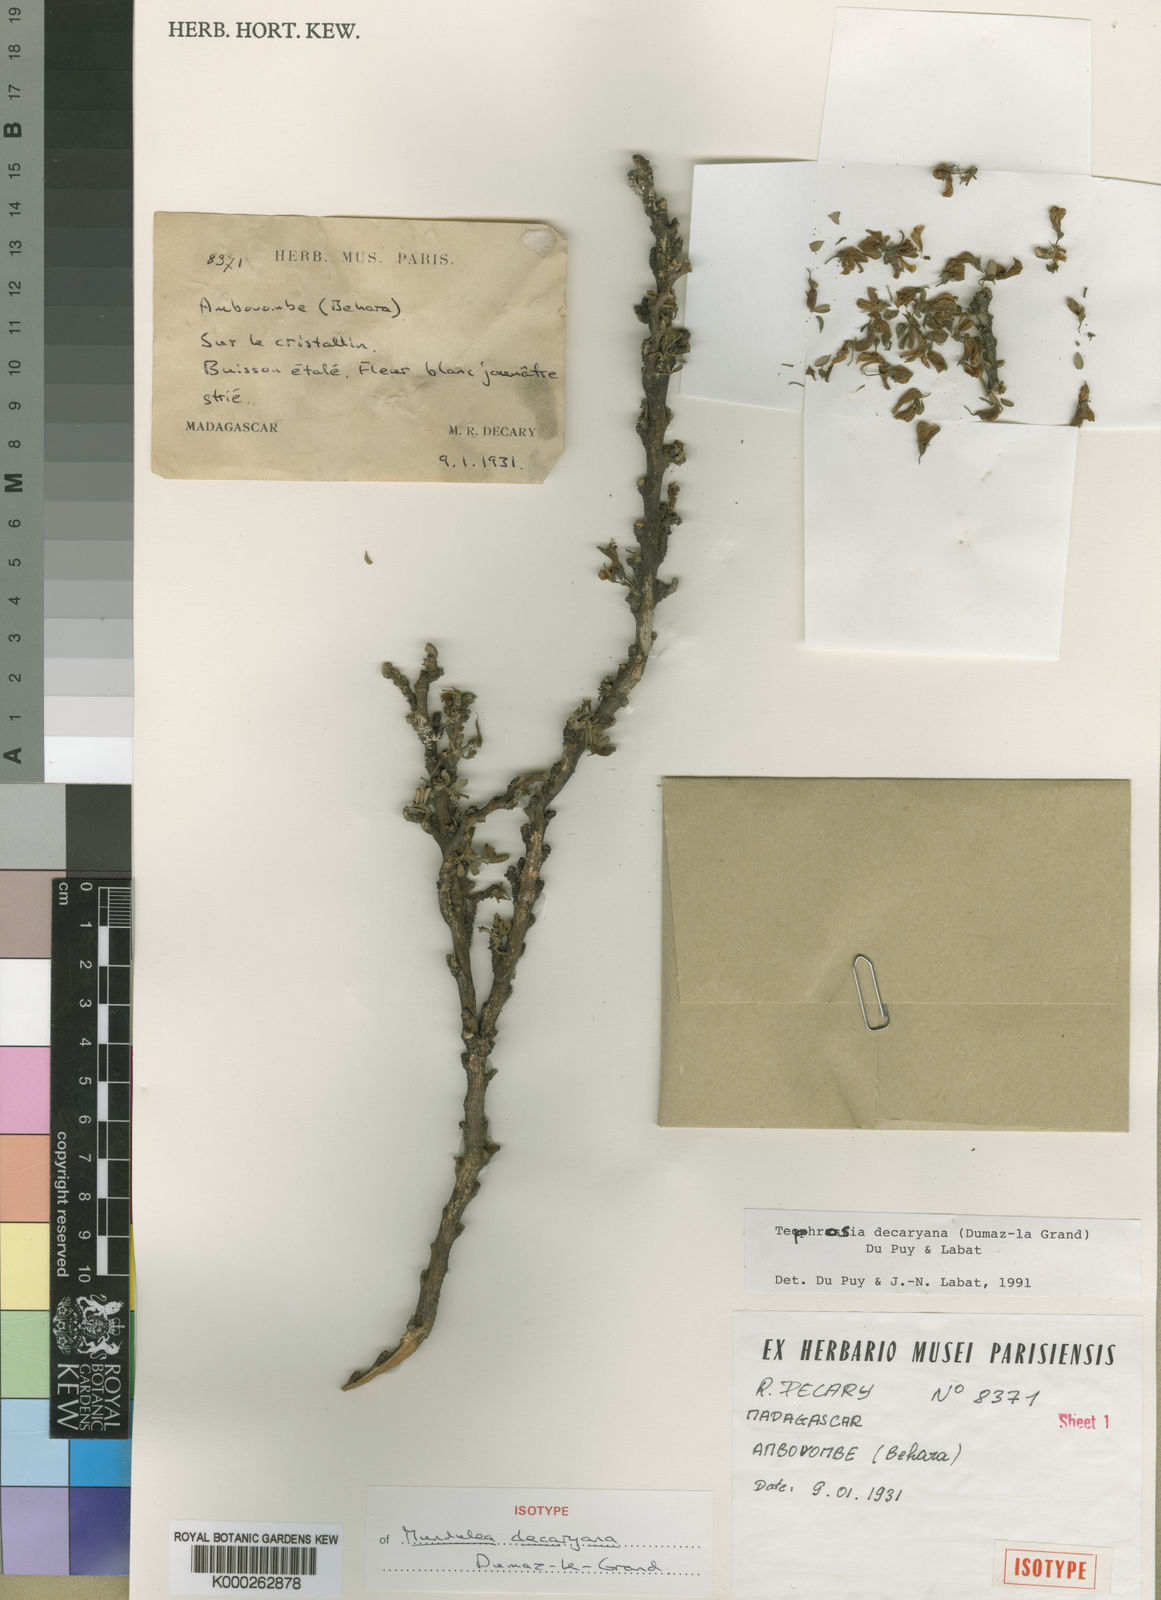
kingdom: Plantae
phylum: Tracheophyta
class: Magnoliopsida
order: Fabales
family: Fabaceae
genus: Tephrosia
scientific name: Tephrosia decaryana
